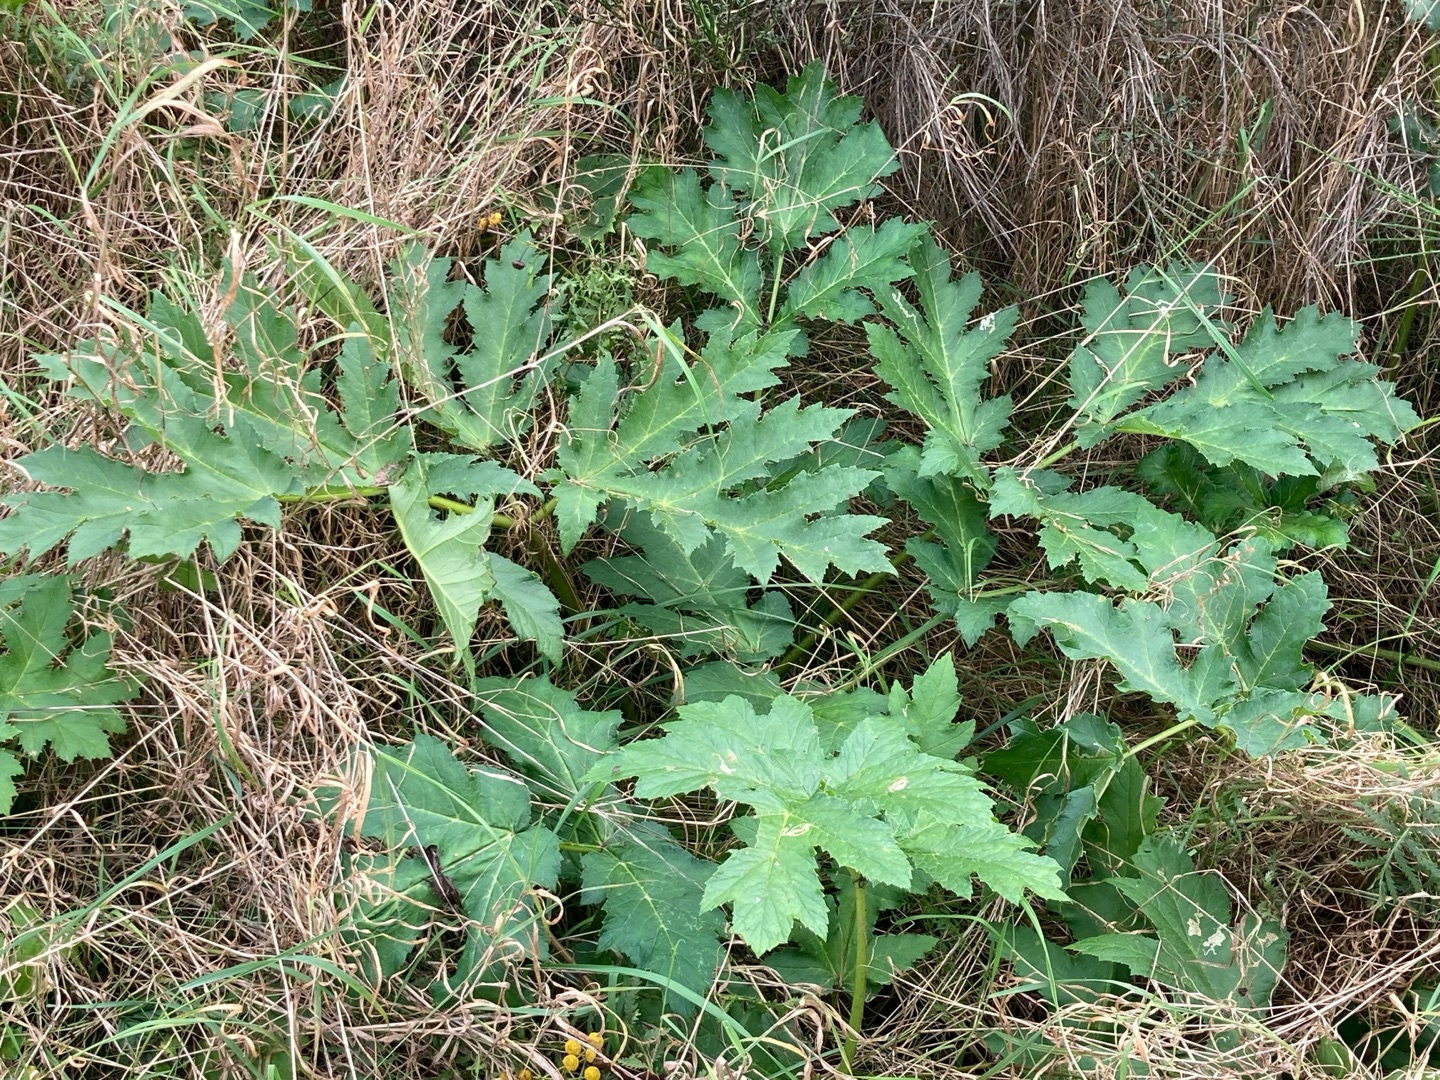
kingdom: Plantae
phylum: Tracheophyta
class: Magnoliopsida
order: Apiales
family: Apiaceae
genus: Heracleum
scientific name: Heracleum mantegazzianum
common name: Kæmpe-bjørneklo
